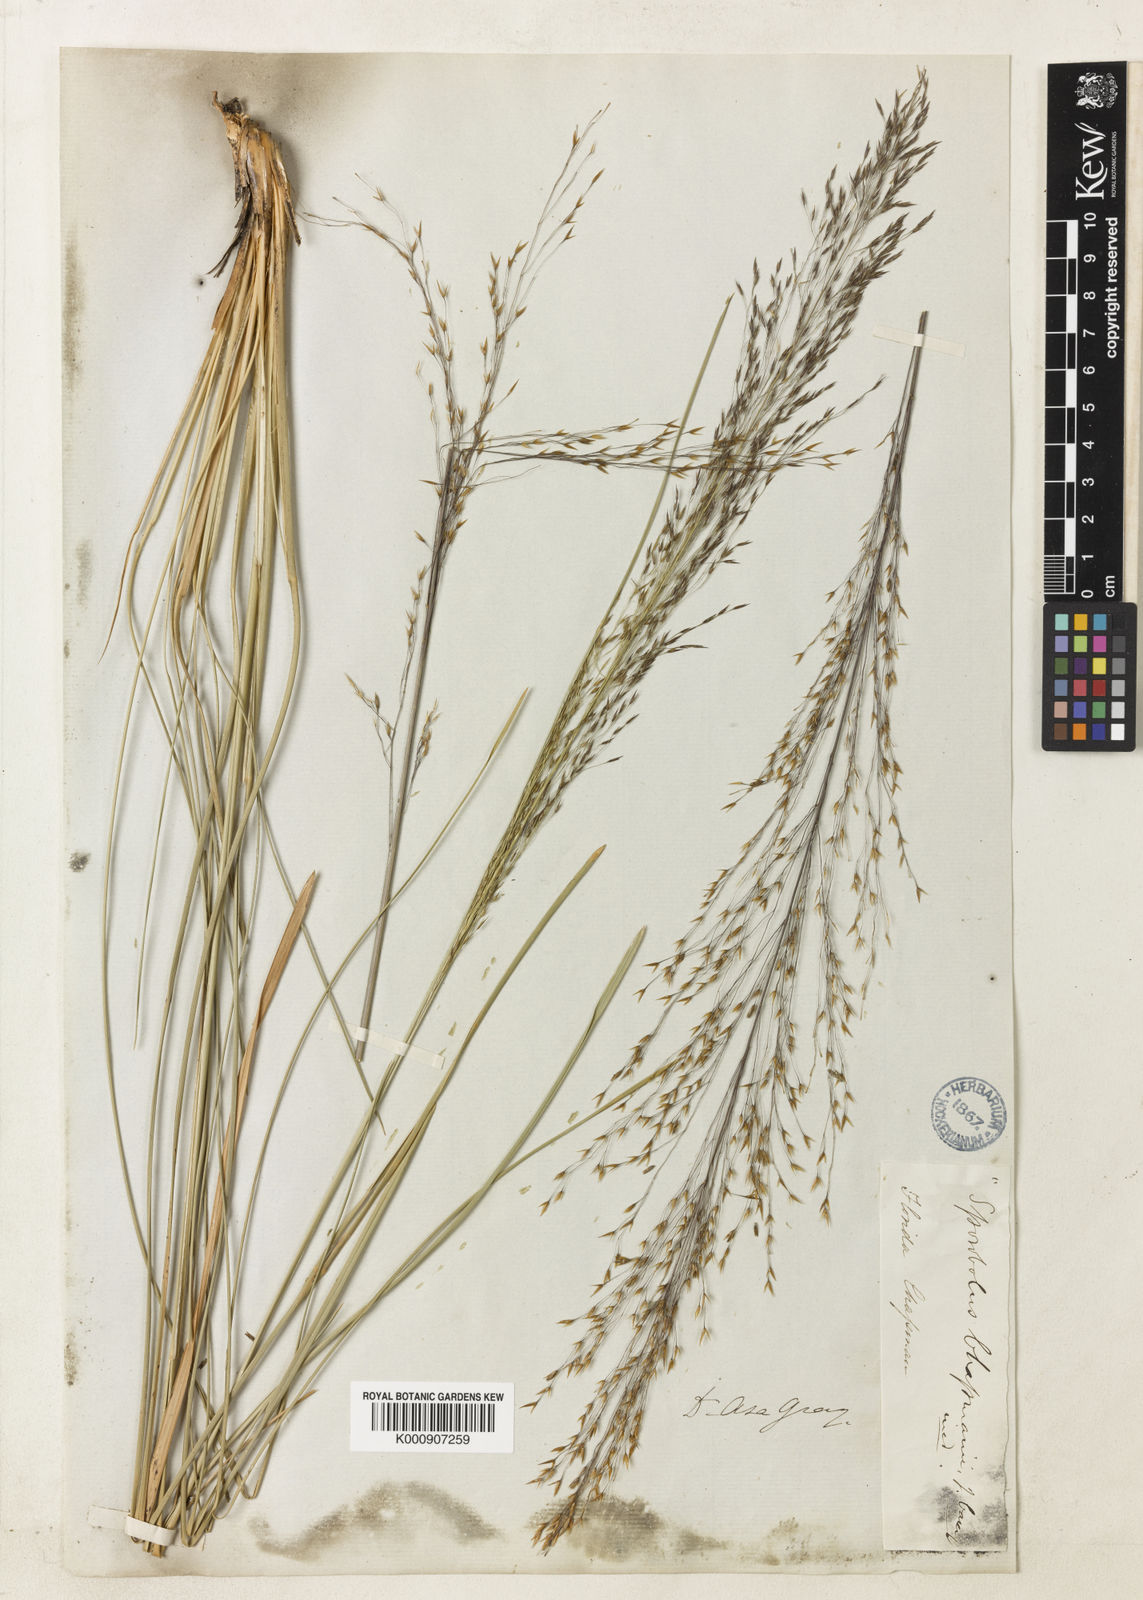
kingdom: Plantae
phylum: Tracheophyta
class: Liliopsida
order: Poales
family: Poaceae
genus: Sporobolus
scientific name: Sporobolus floridanus
